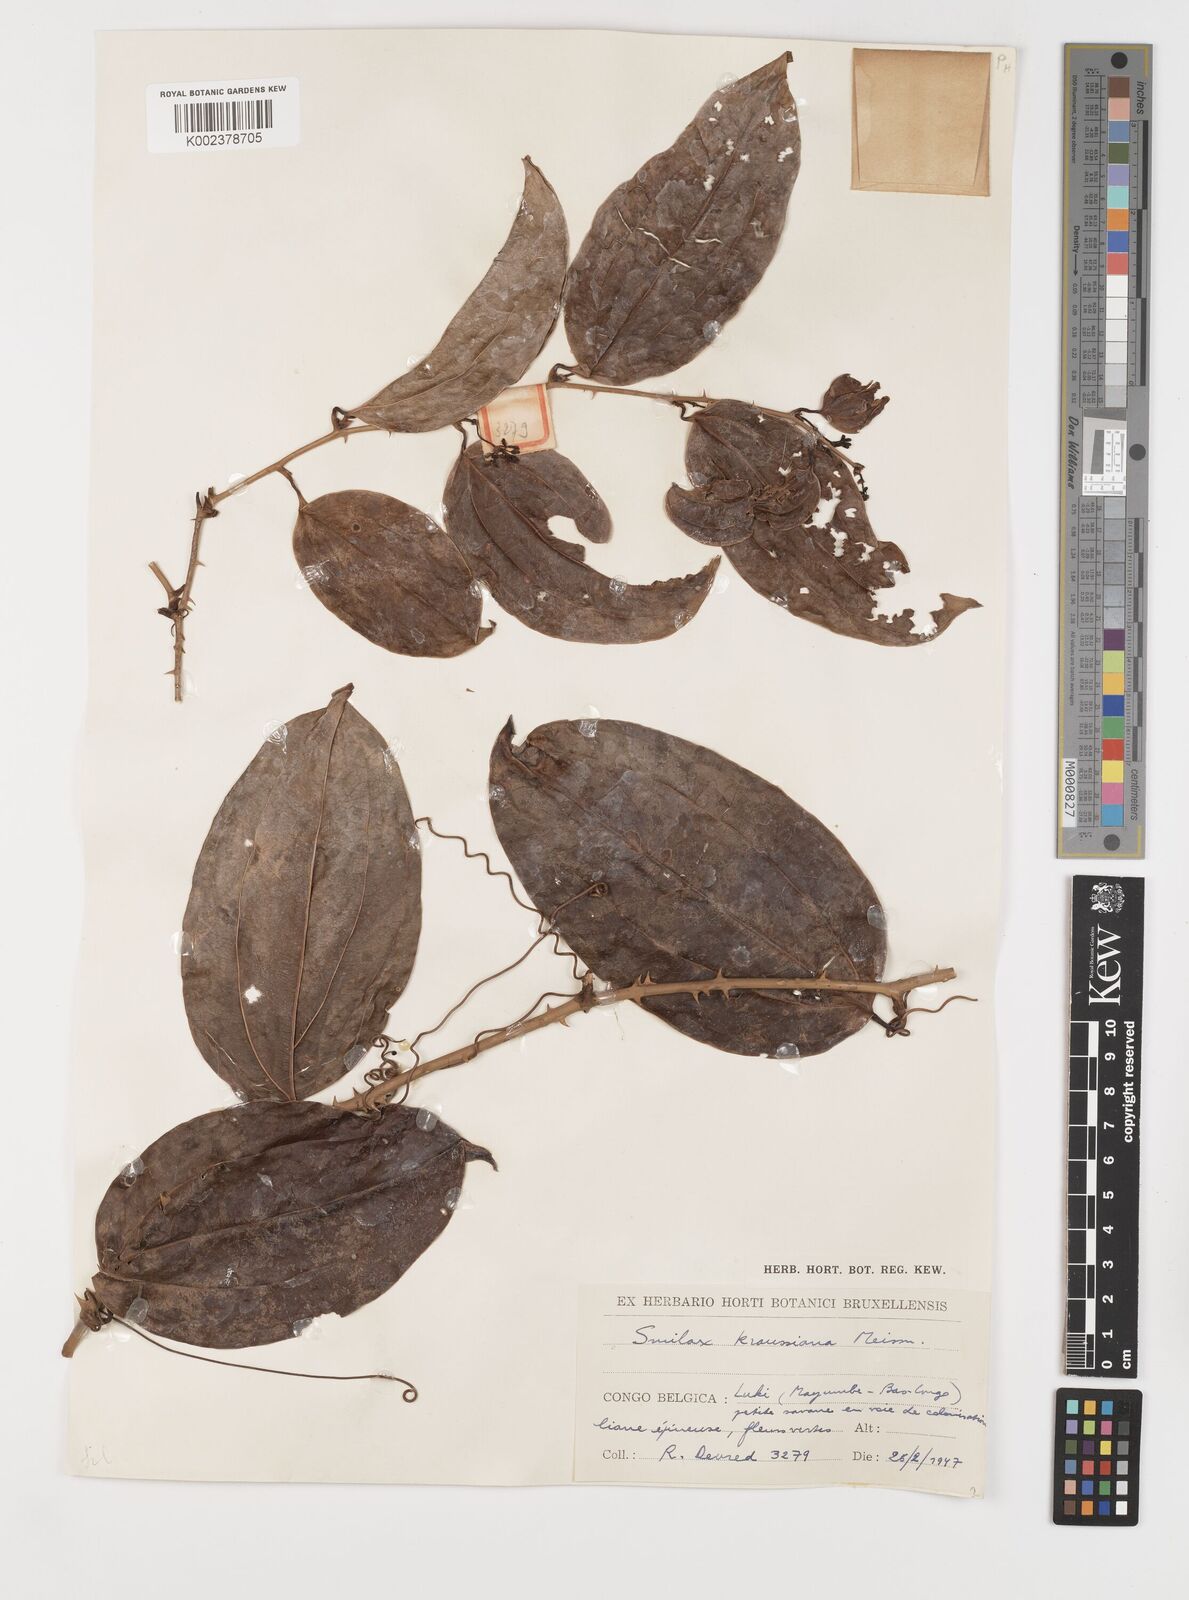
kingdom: Plantae
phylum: Tracheophyta
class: Liliopsida
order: Liliales
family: Smilacaceae
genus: Smilax
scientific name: Smilax anceps
